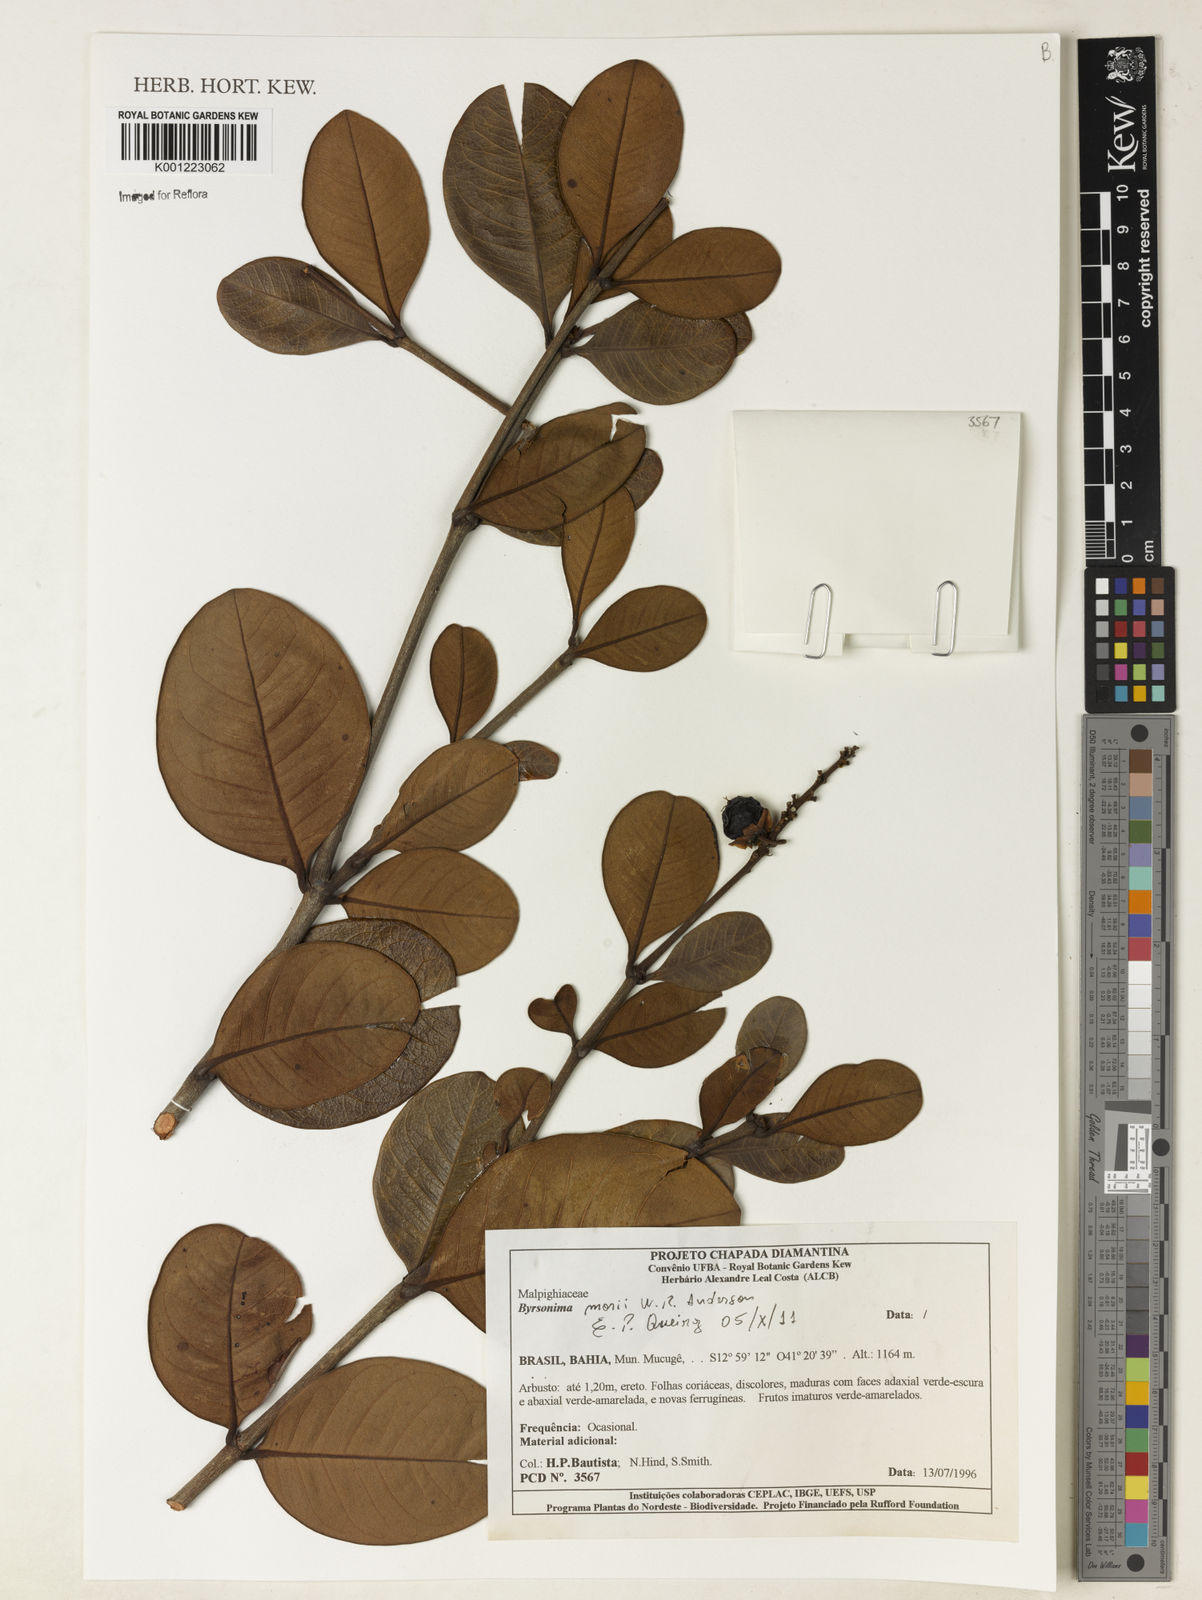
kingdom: Plantae
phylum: Tracheophyta
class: Magnoliopsida
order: Malpighiales
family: Malpighiaceae
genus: Byrsonima
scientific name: Byrsonima morii
